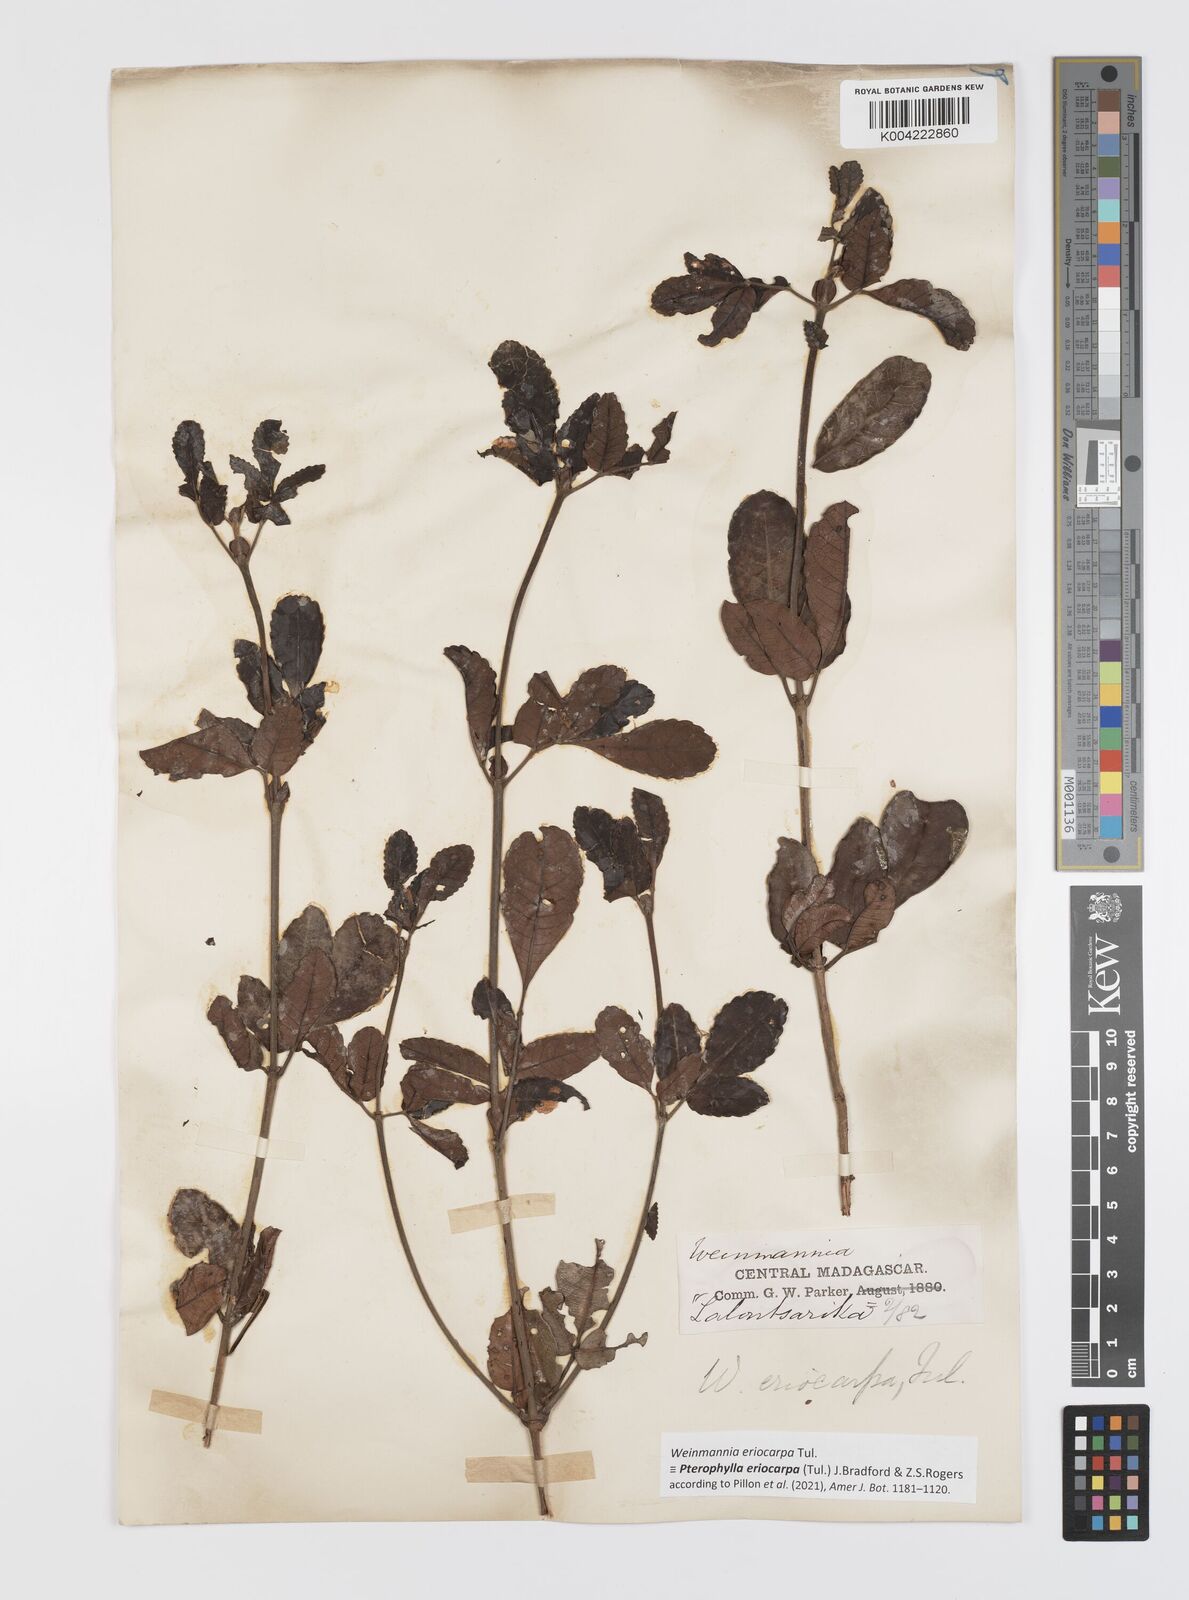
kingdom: Plantae
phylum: Tracheophyta
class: Magnoliopsida
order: Oxalidales
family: Cunoniaceae
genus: Pterophylla
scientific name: Pterophylla eriocarpa
